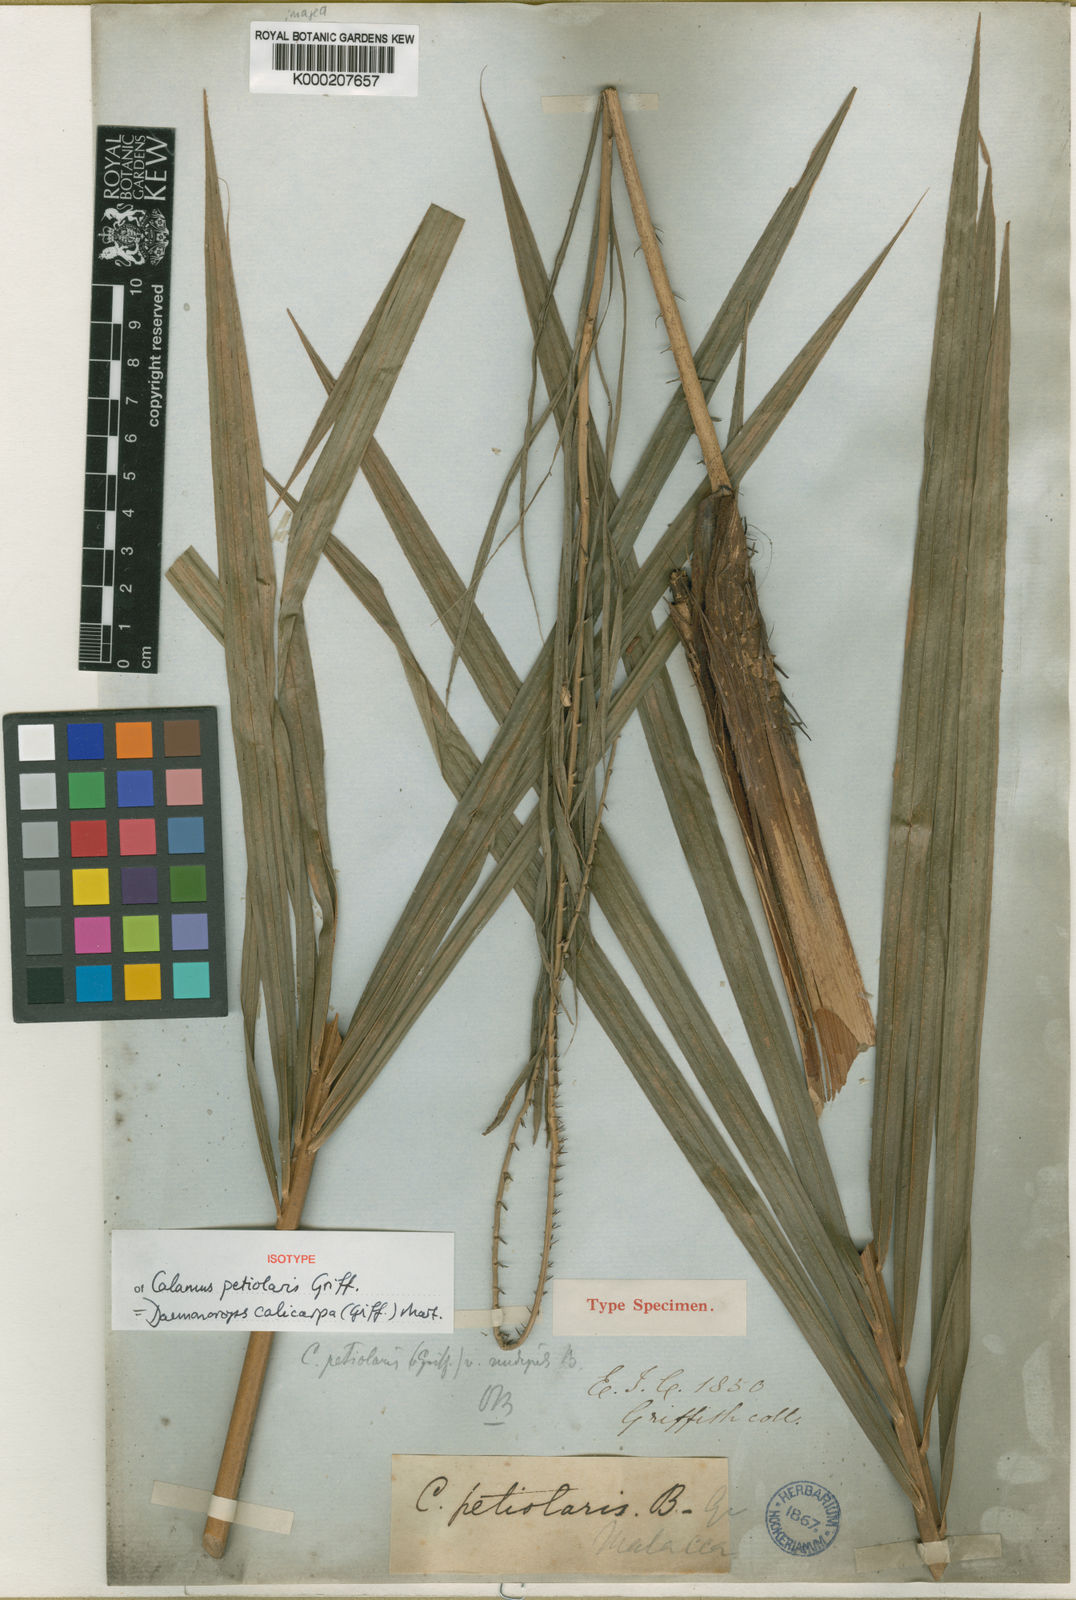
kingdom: Plantae
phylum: Tracheophyta
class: Liliopsida
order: Arecales
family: Arecaceae
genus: Calamus
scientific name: Calamus calicarpus
